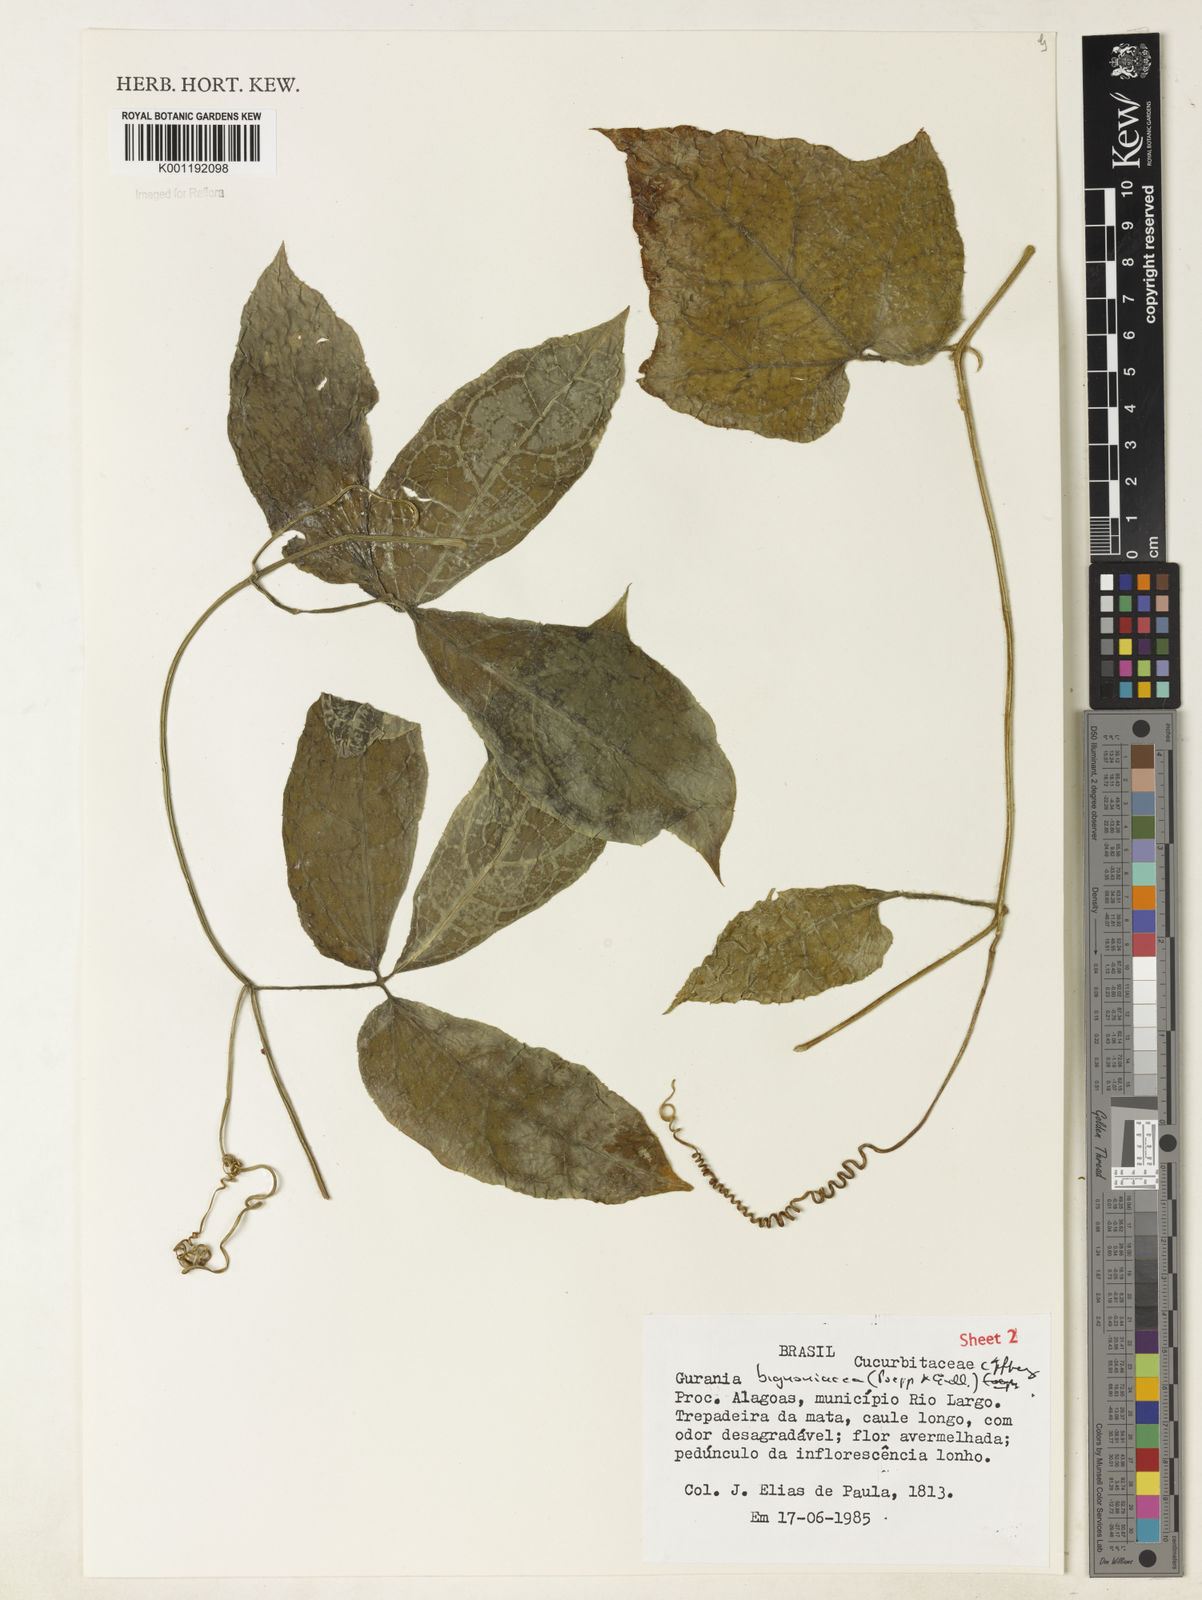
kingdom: Plantae
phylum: Tracheophyta
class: Magnoliopsida
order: Cucurbitales
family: Cucurbitaceae
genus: Gurania
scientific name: Gurania bignoniacea
